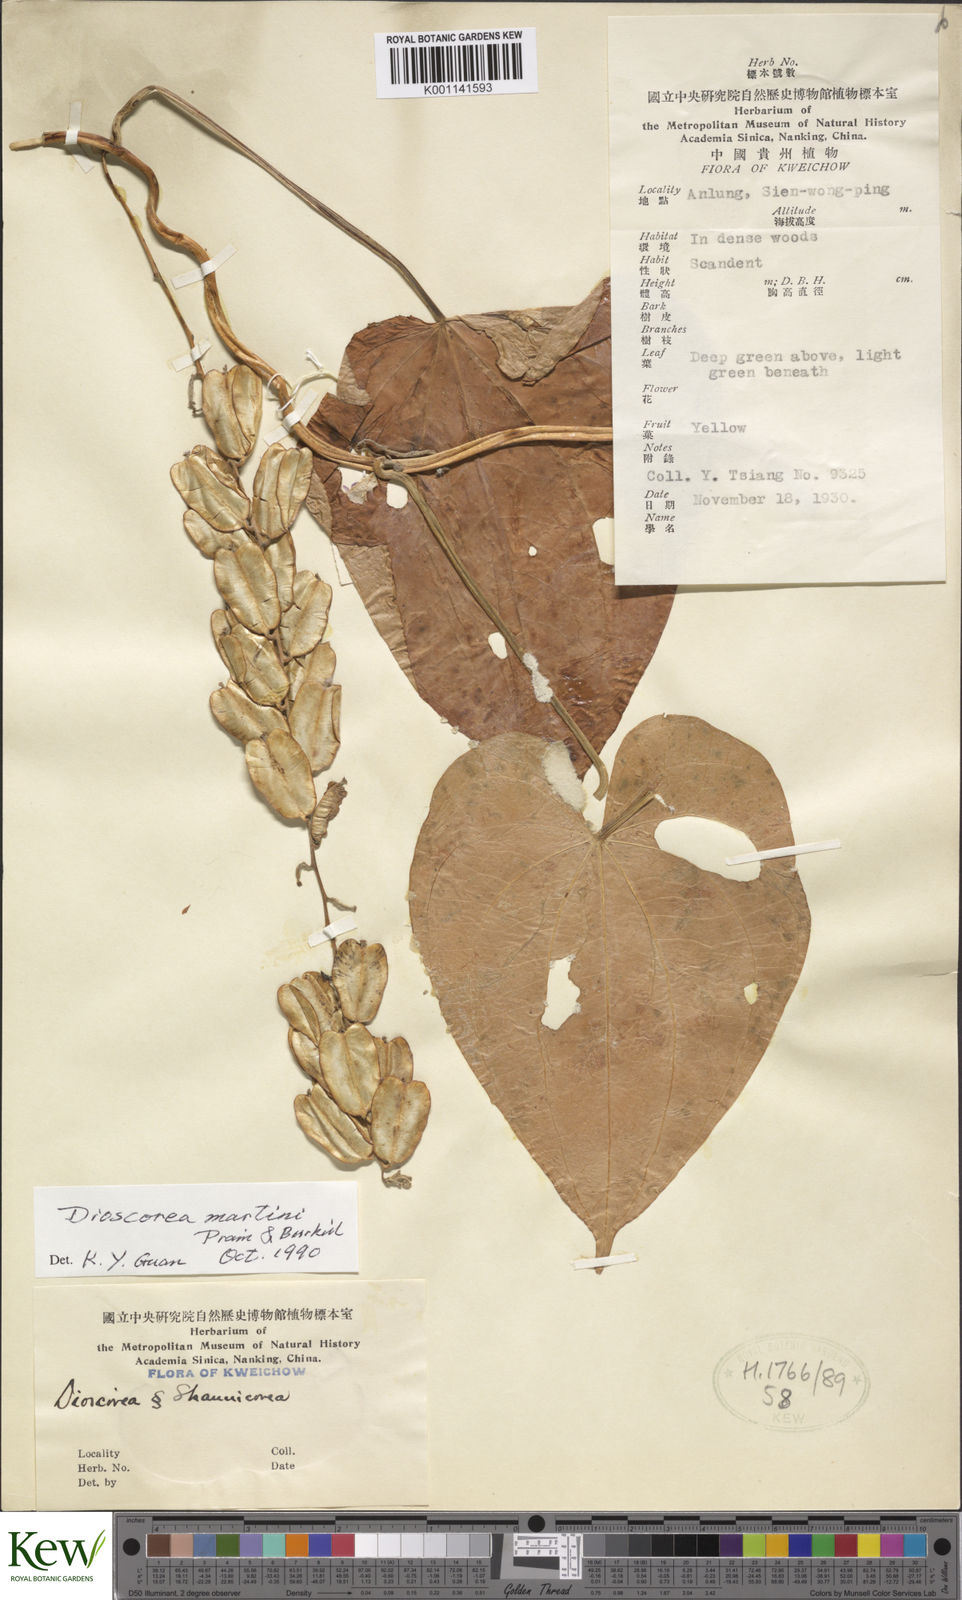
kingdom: Plantae
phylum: Tracheophyta
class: Liliopsida
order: Dioscoreales
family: Dioscoreaceae
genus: Dioscorea
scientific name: Dioscorea martini
